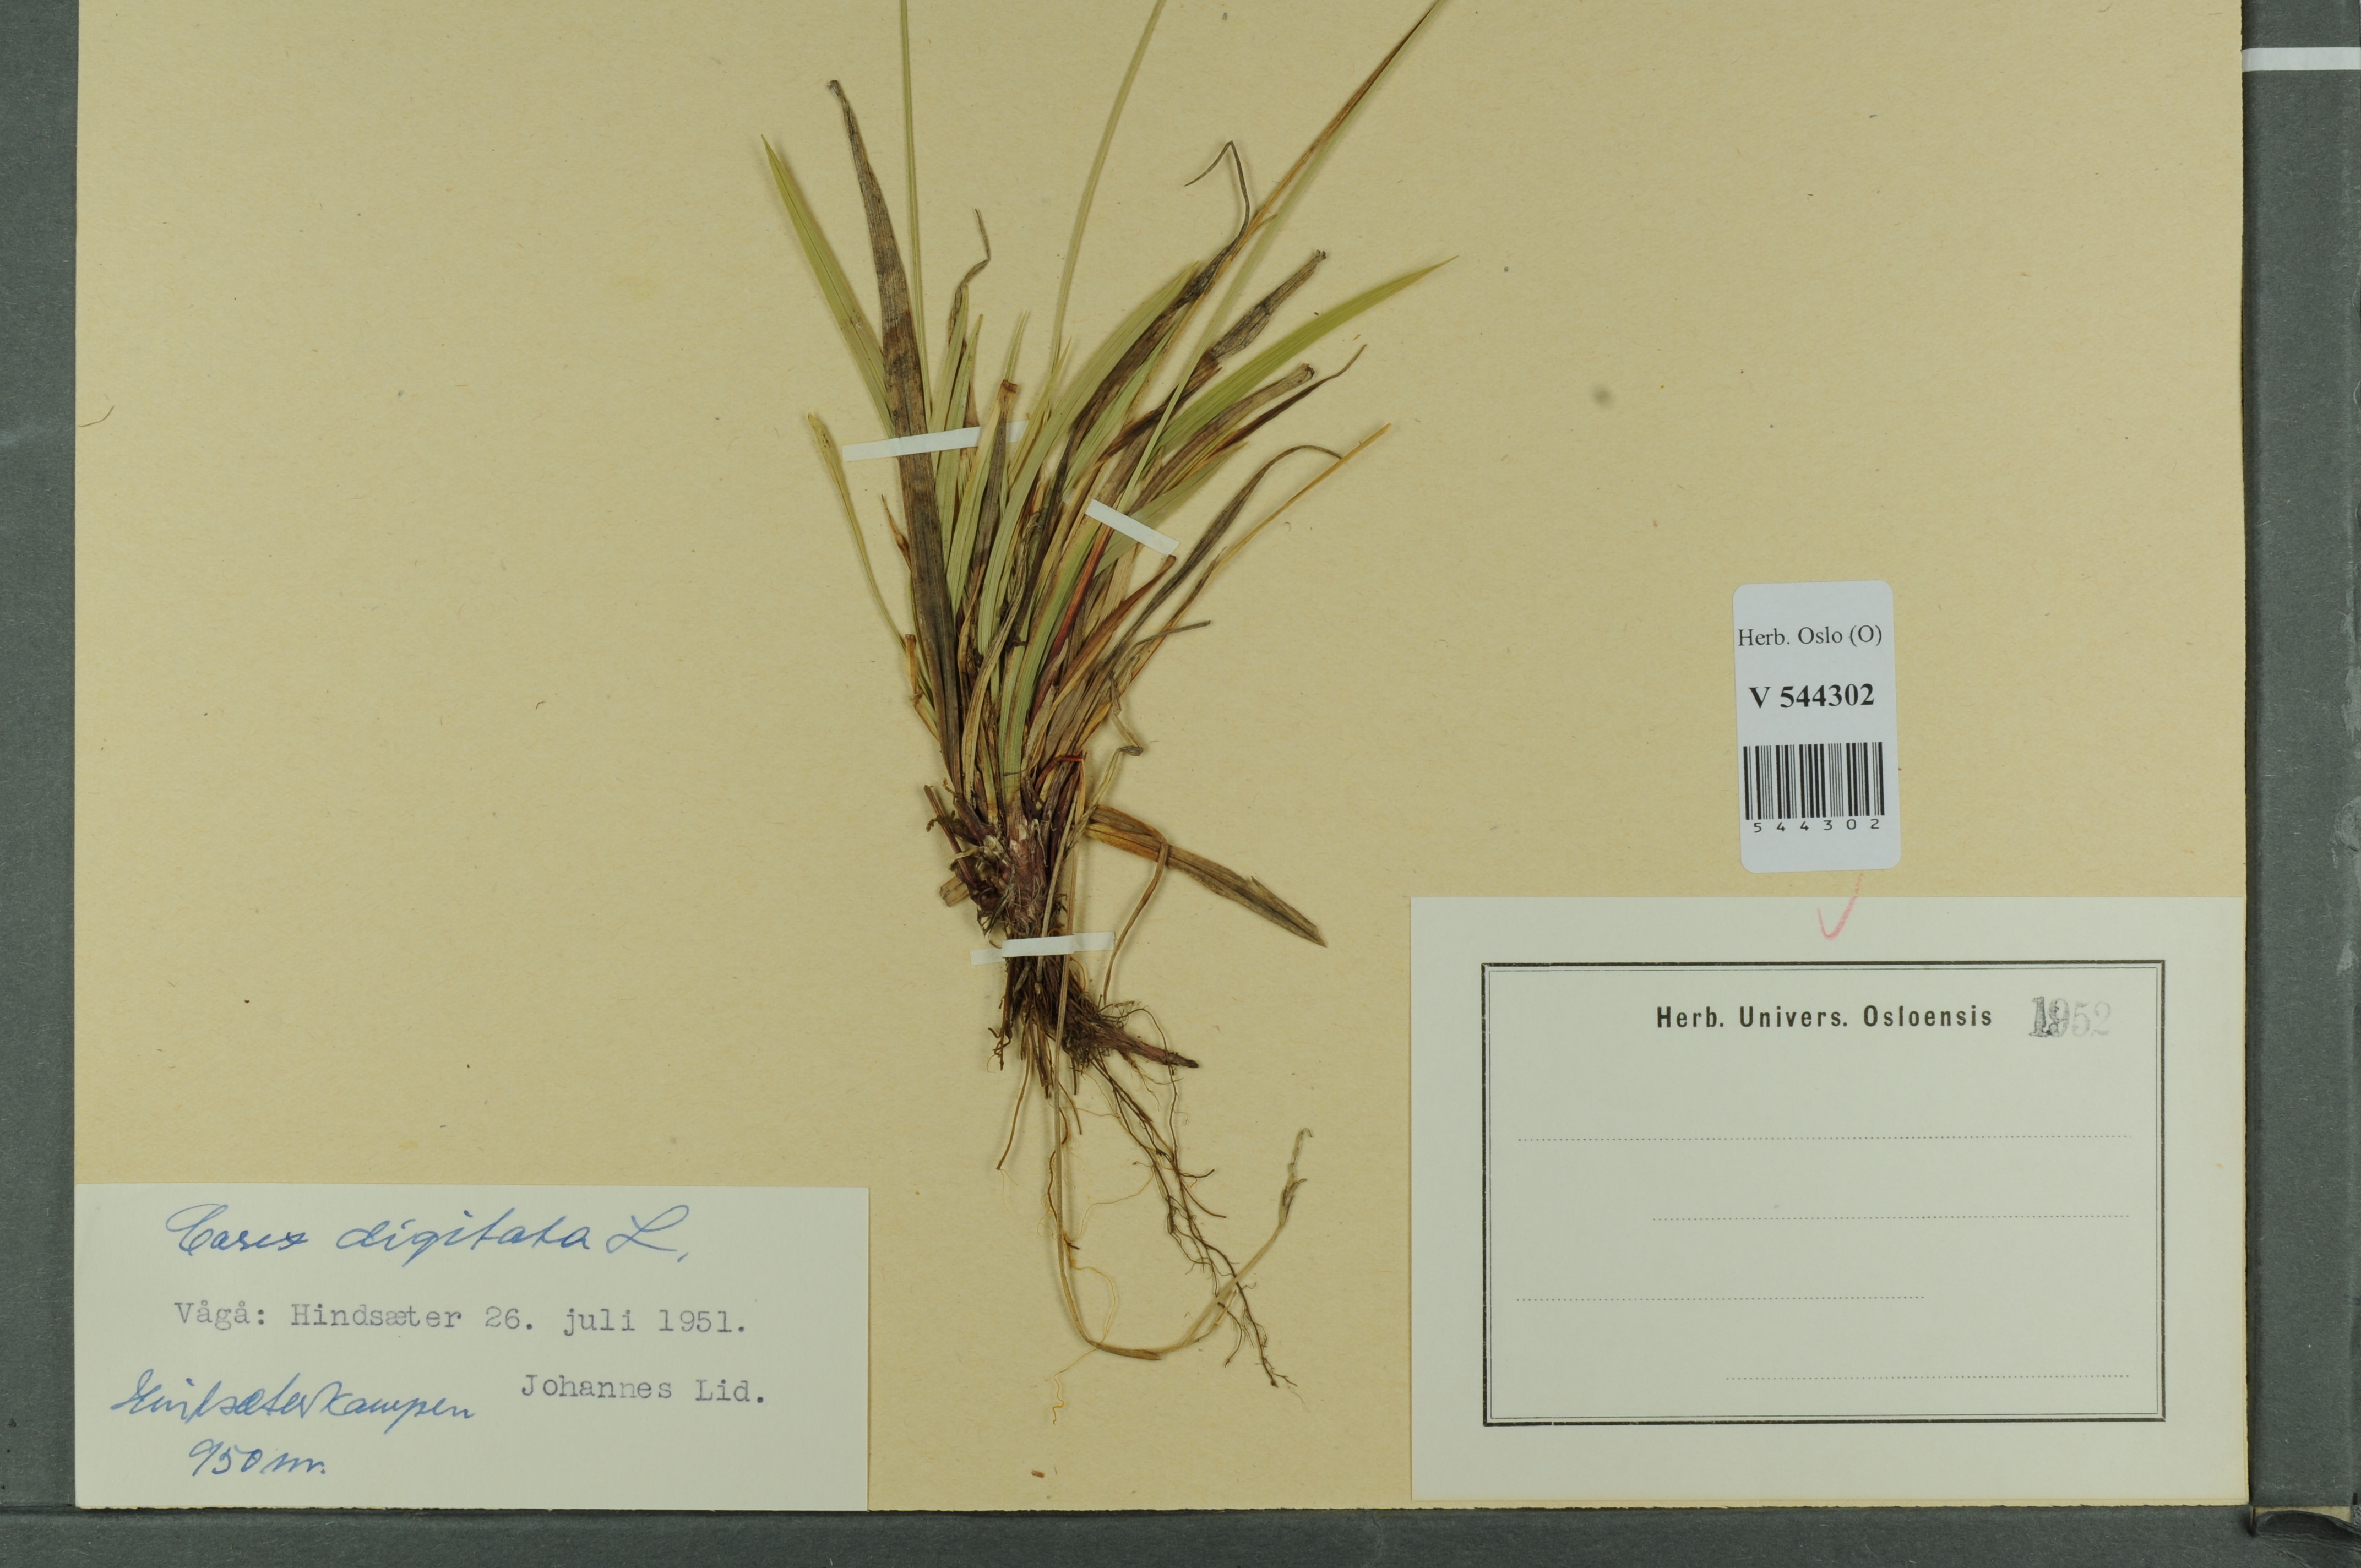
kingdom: Plantae
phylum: Tracheophyta
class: Liliopsida
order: Poales
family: Cyperaceae
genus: Carex
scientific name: Carex digitata
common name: Fingered sedge
